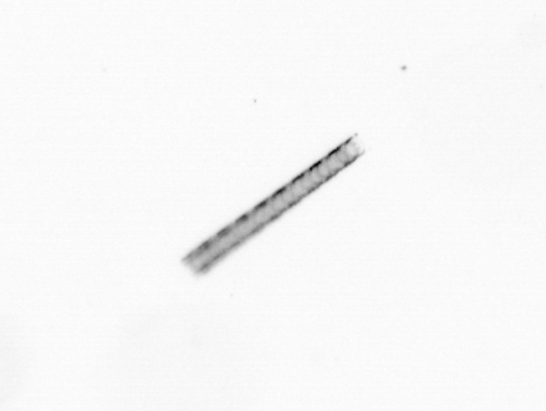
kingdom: Chromista
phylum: Ochrophyta
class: Bacillariophyceae
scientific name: Bacillariophyceae
